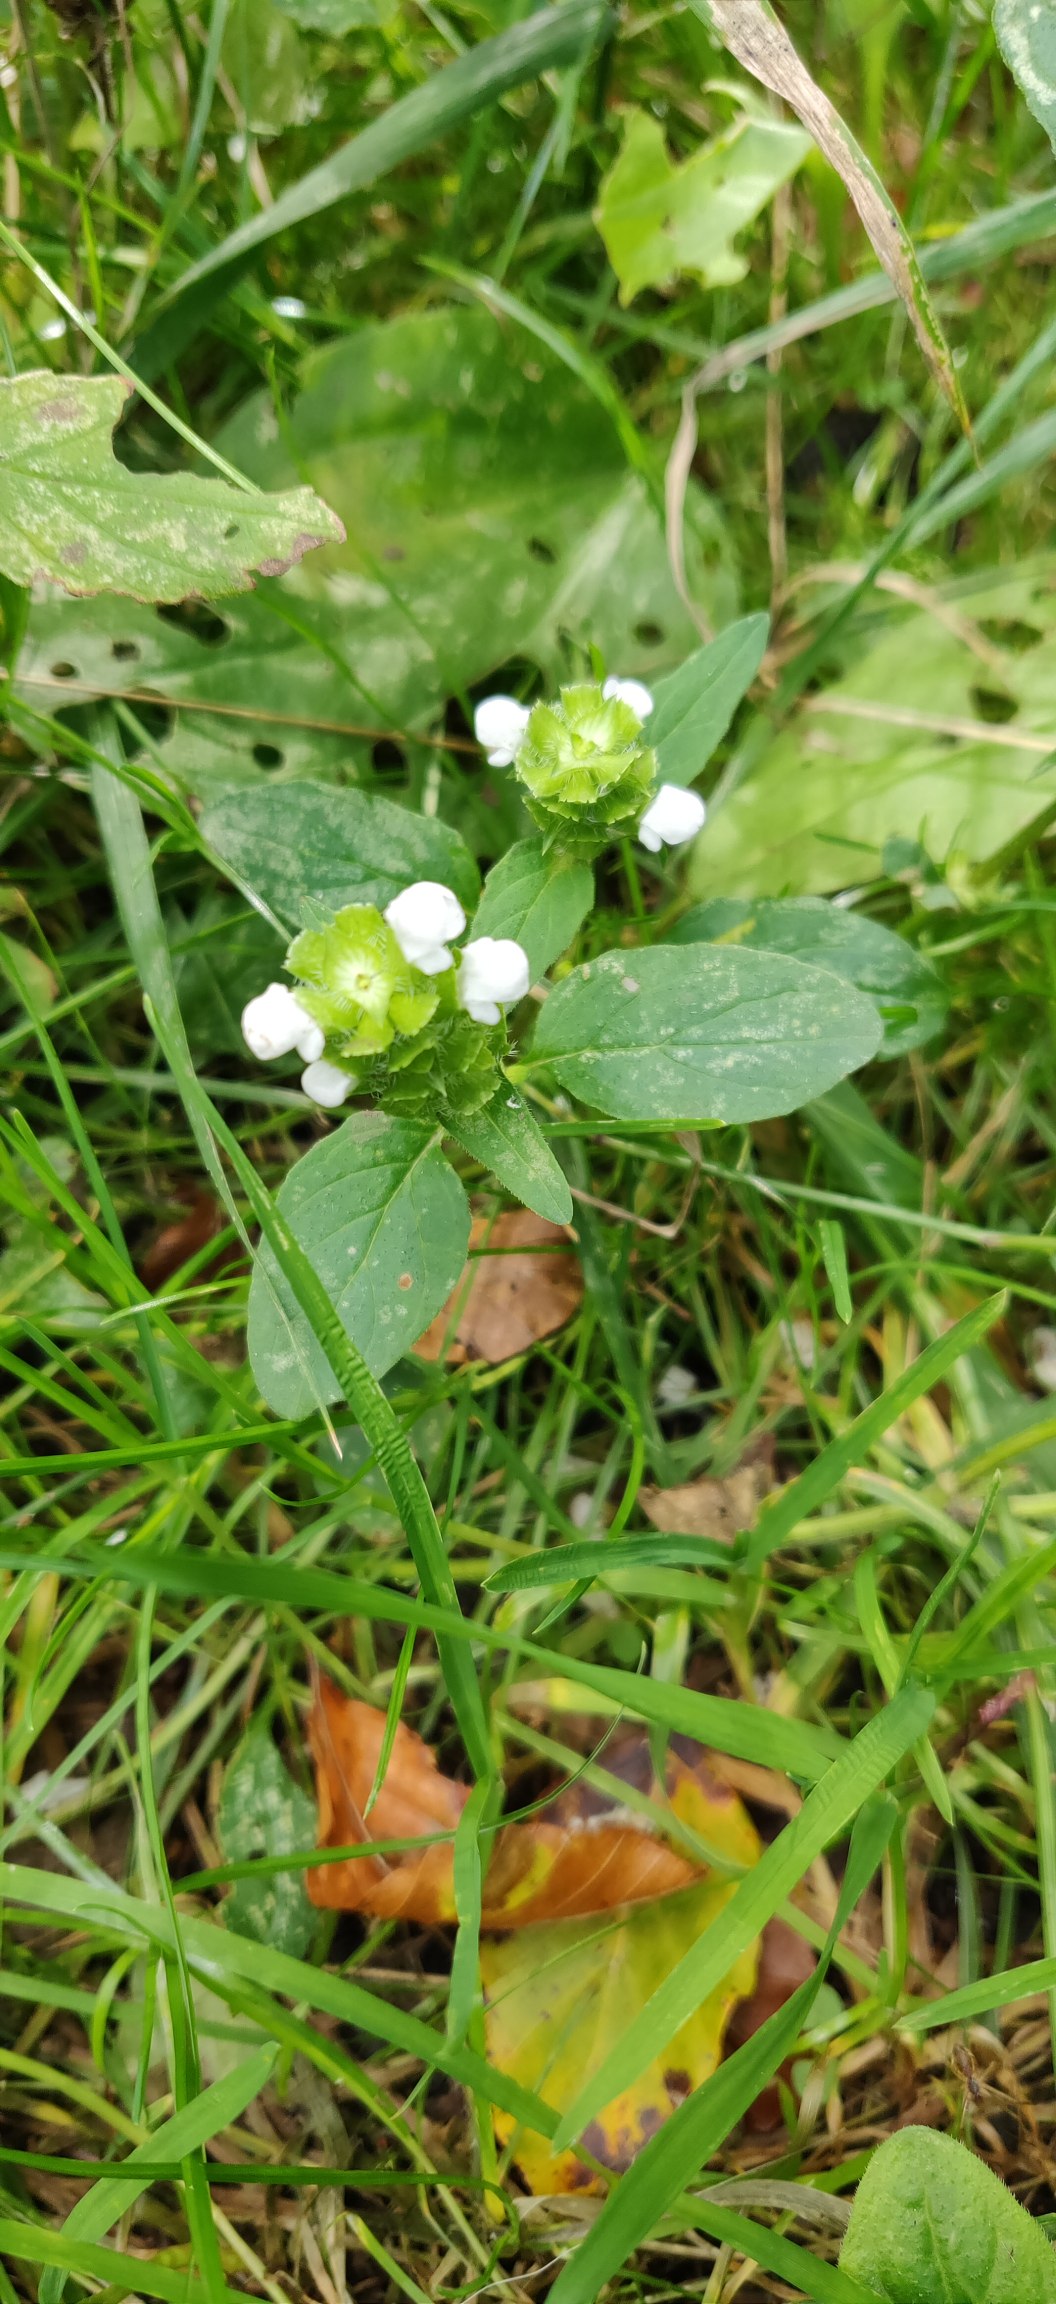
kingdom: Plantae
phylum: Tracheophyta
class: Magnoliopsida
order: Lamiales
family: Lamiaceae
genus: Prunella
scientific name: Prunella vulgaris
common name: Almindelig brunelle
